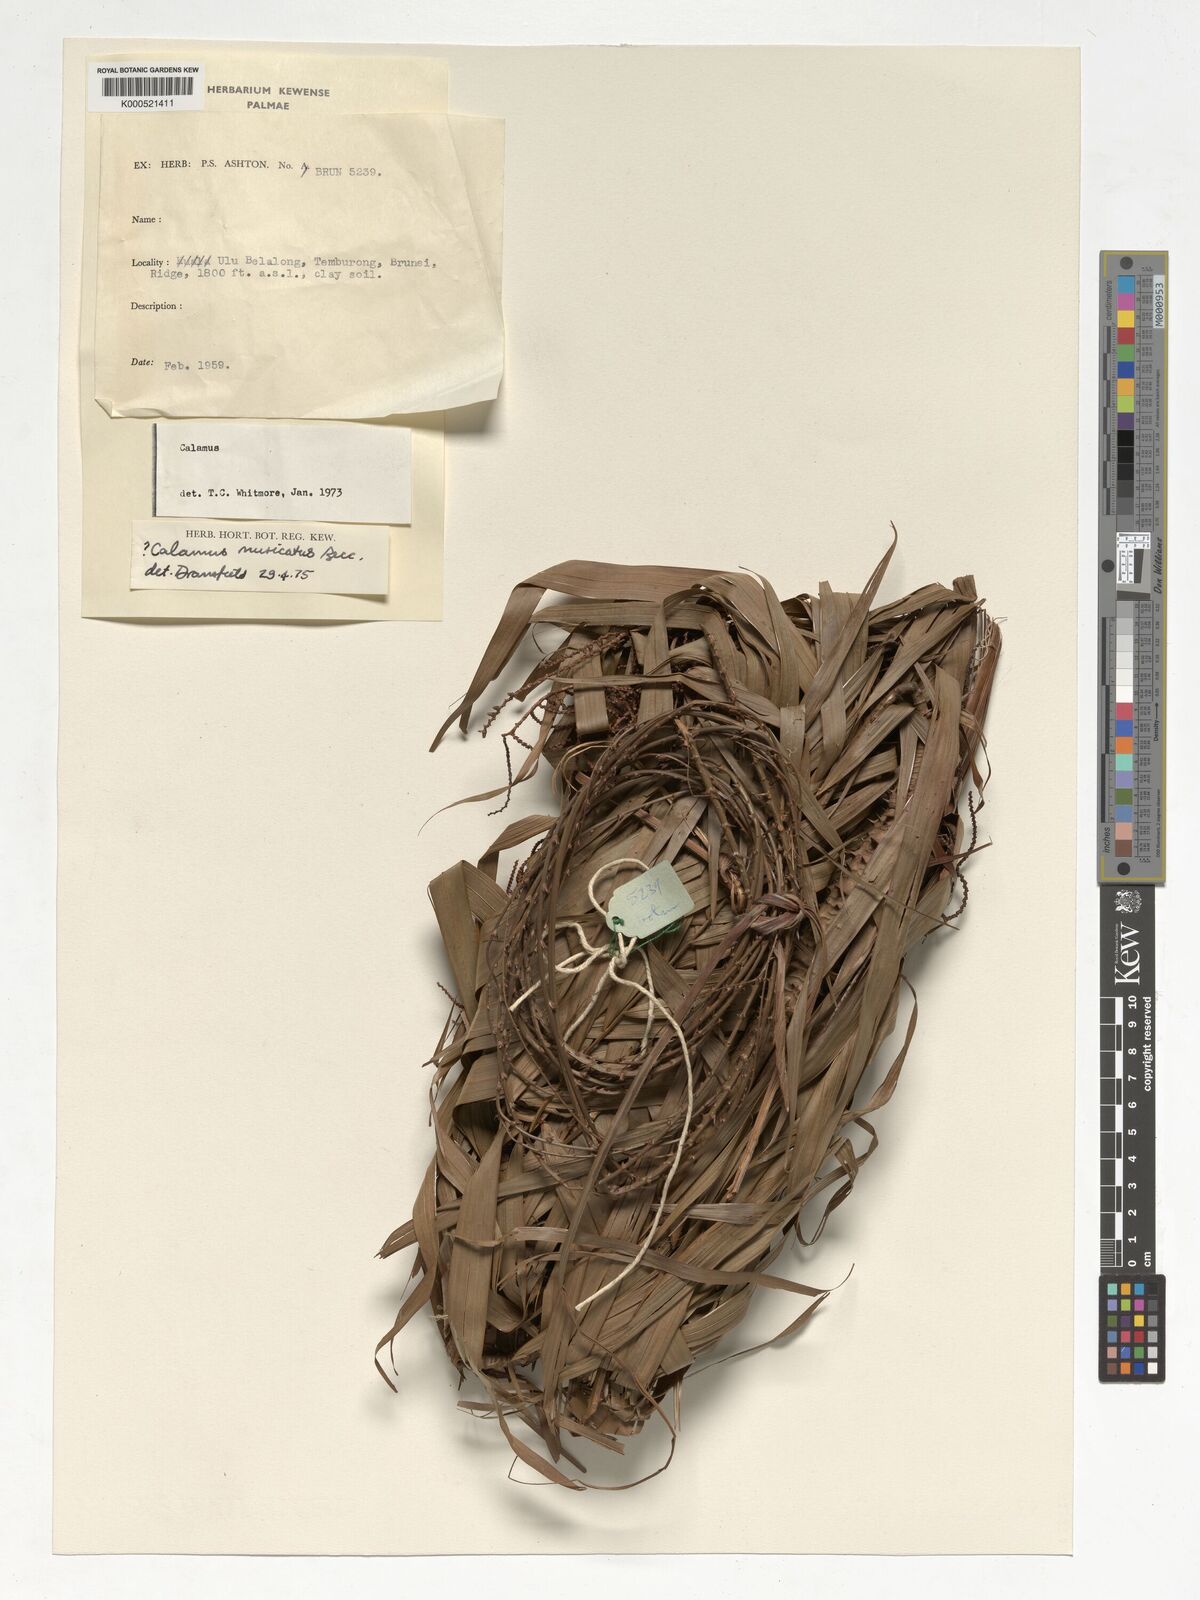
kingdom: Plantae
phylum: Tracheophyta
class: Liliopsida
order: Arecales
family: Arecaceae
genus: Calamus
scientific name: Calamus muricatus
